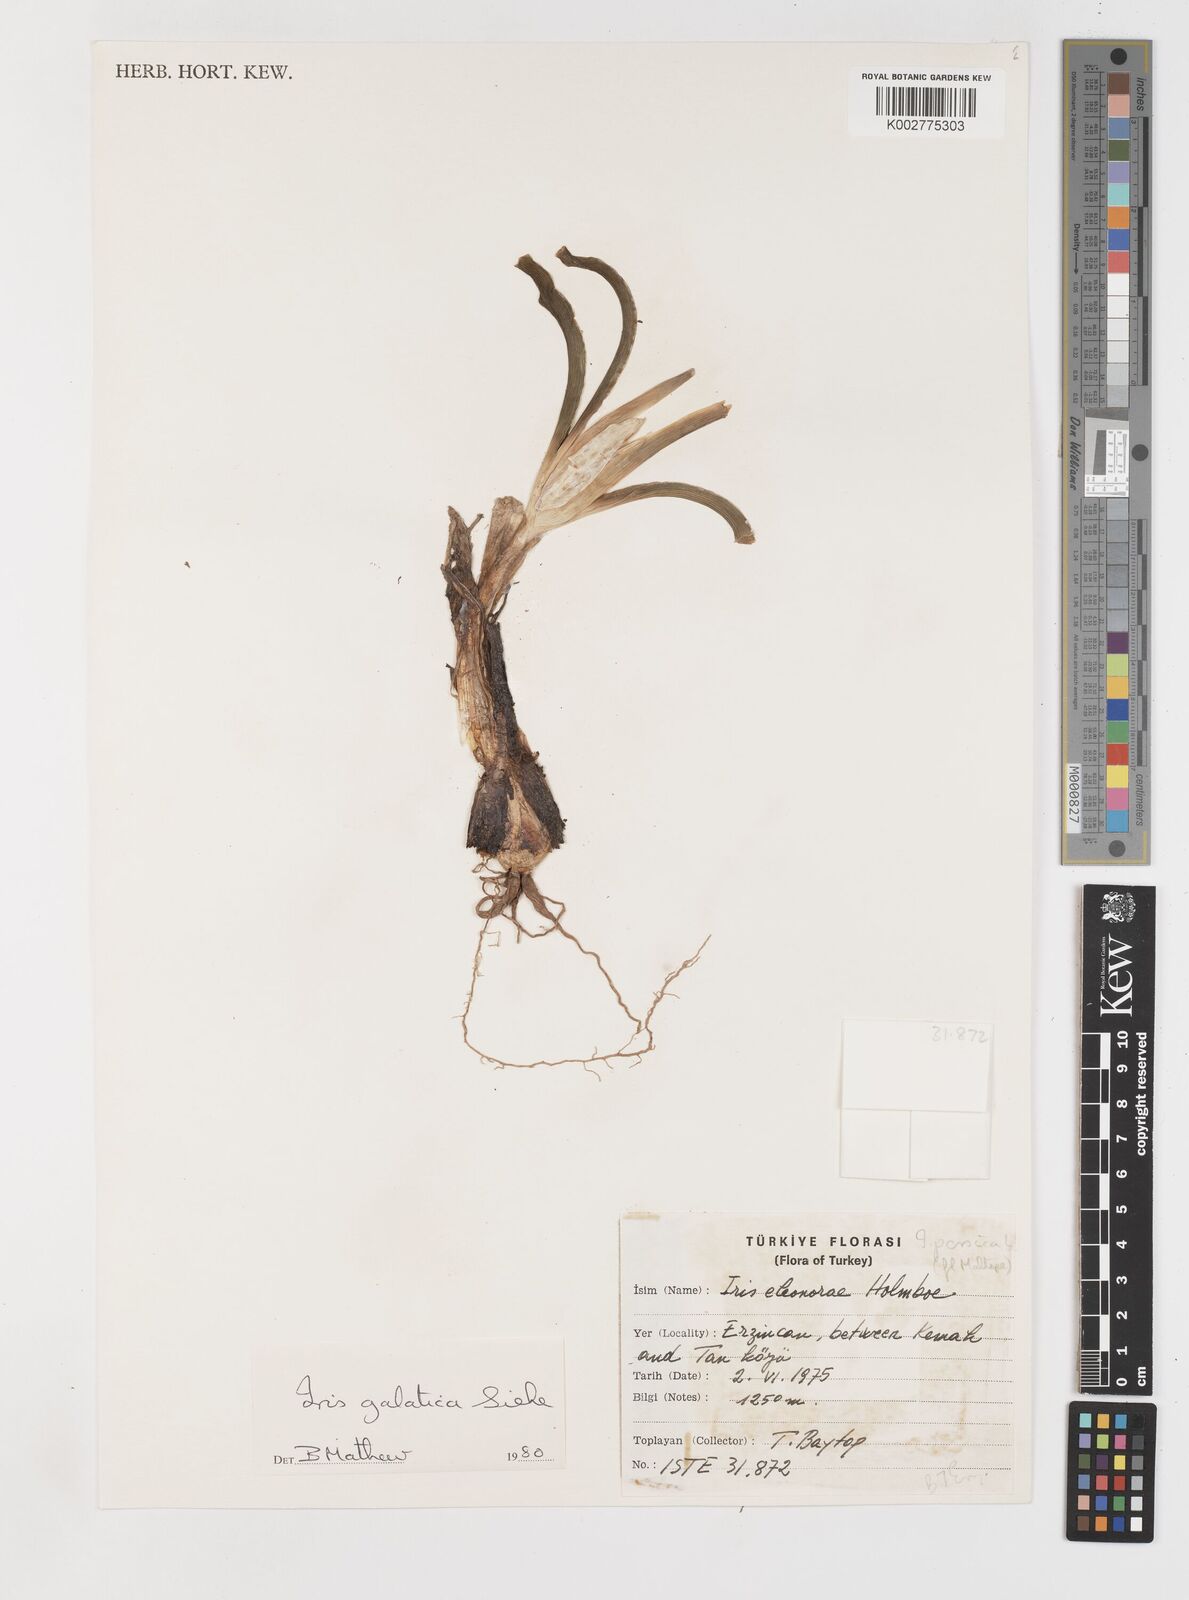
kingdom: Plantae
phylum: Tracheophyta
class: Liliopsida
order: Asparagales
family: Iridaceae
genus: Iris
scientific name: Iris
